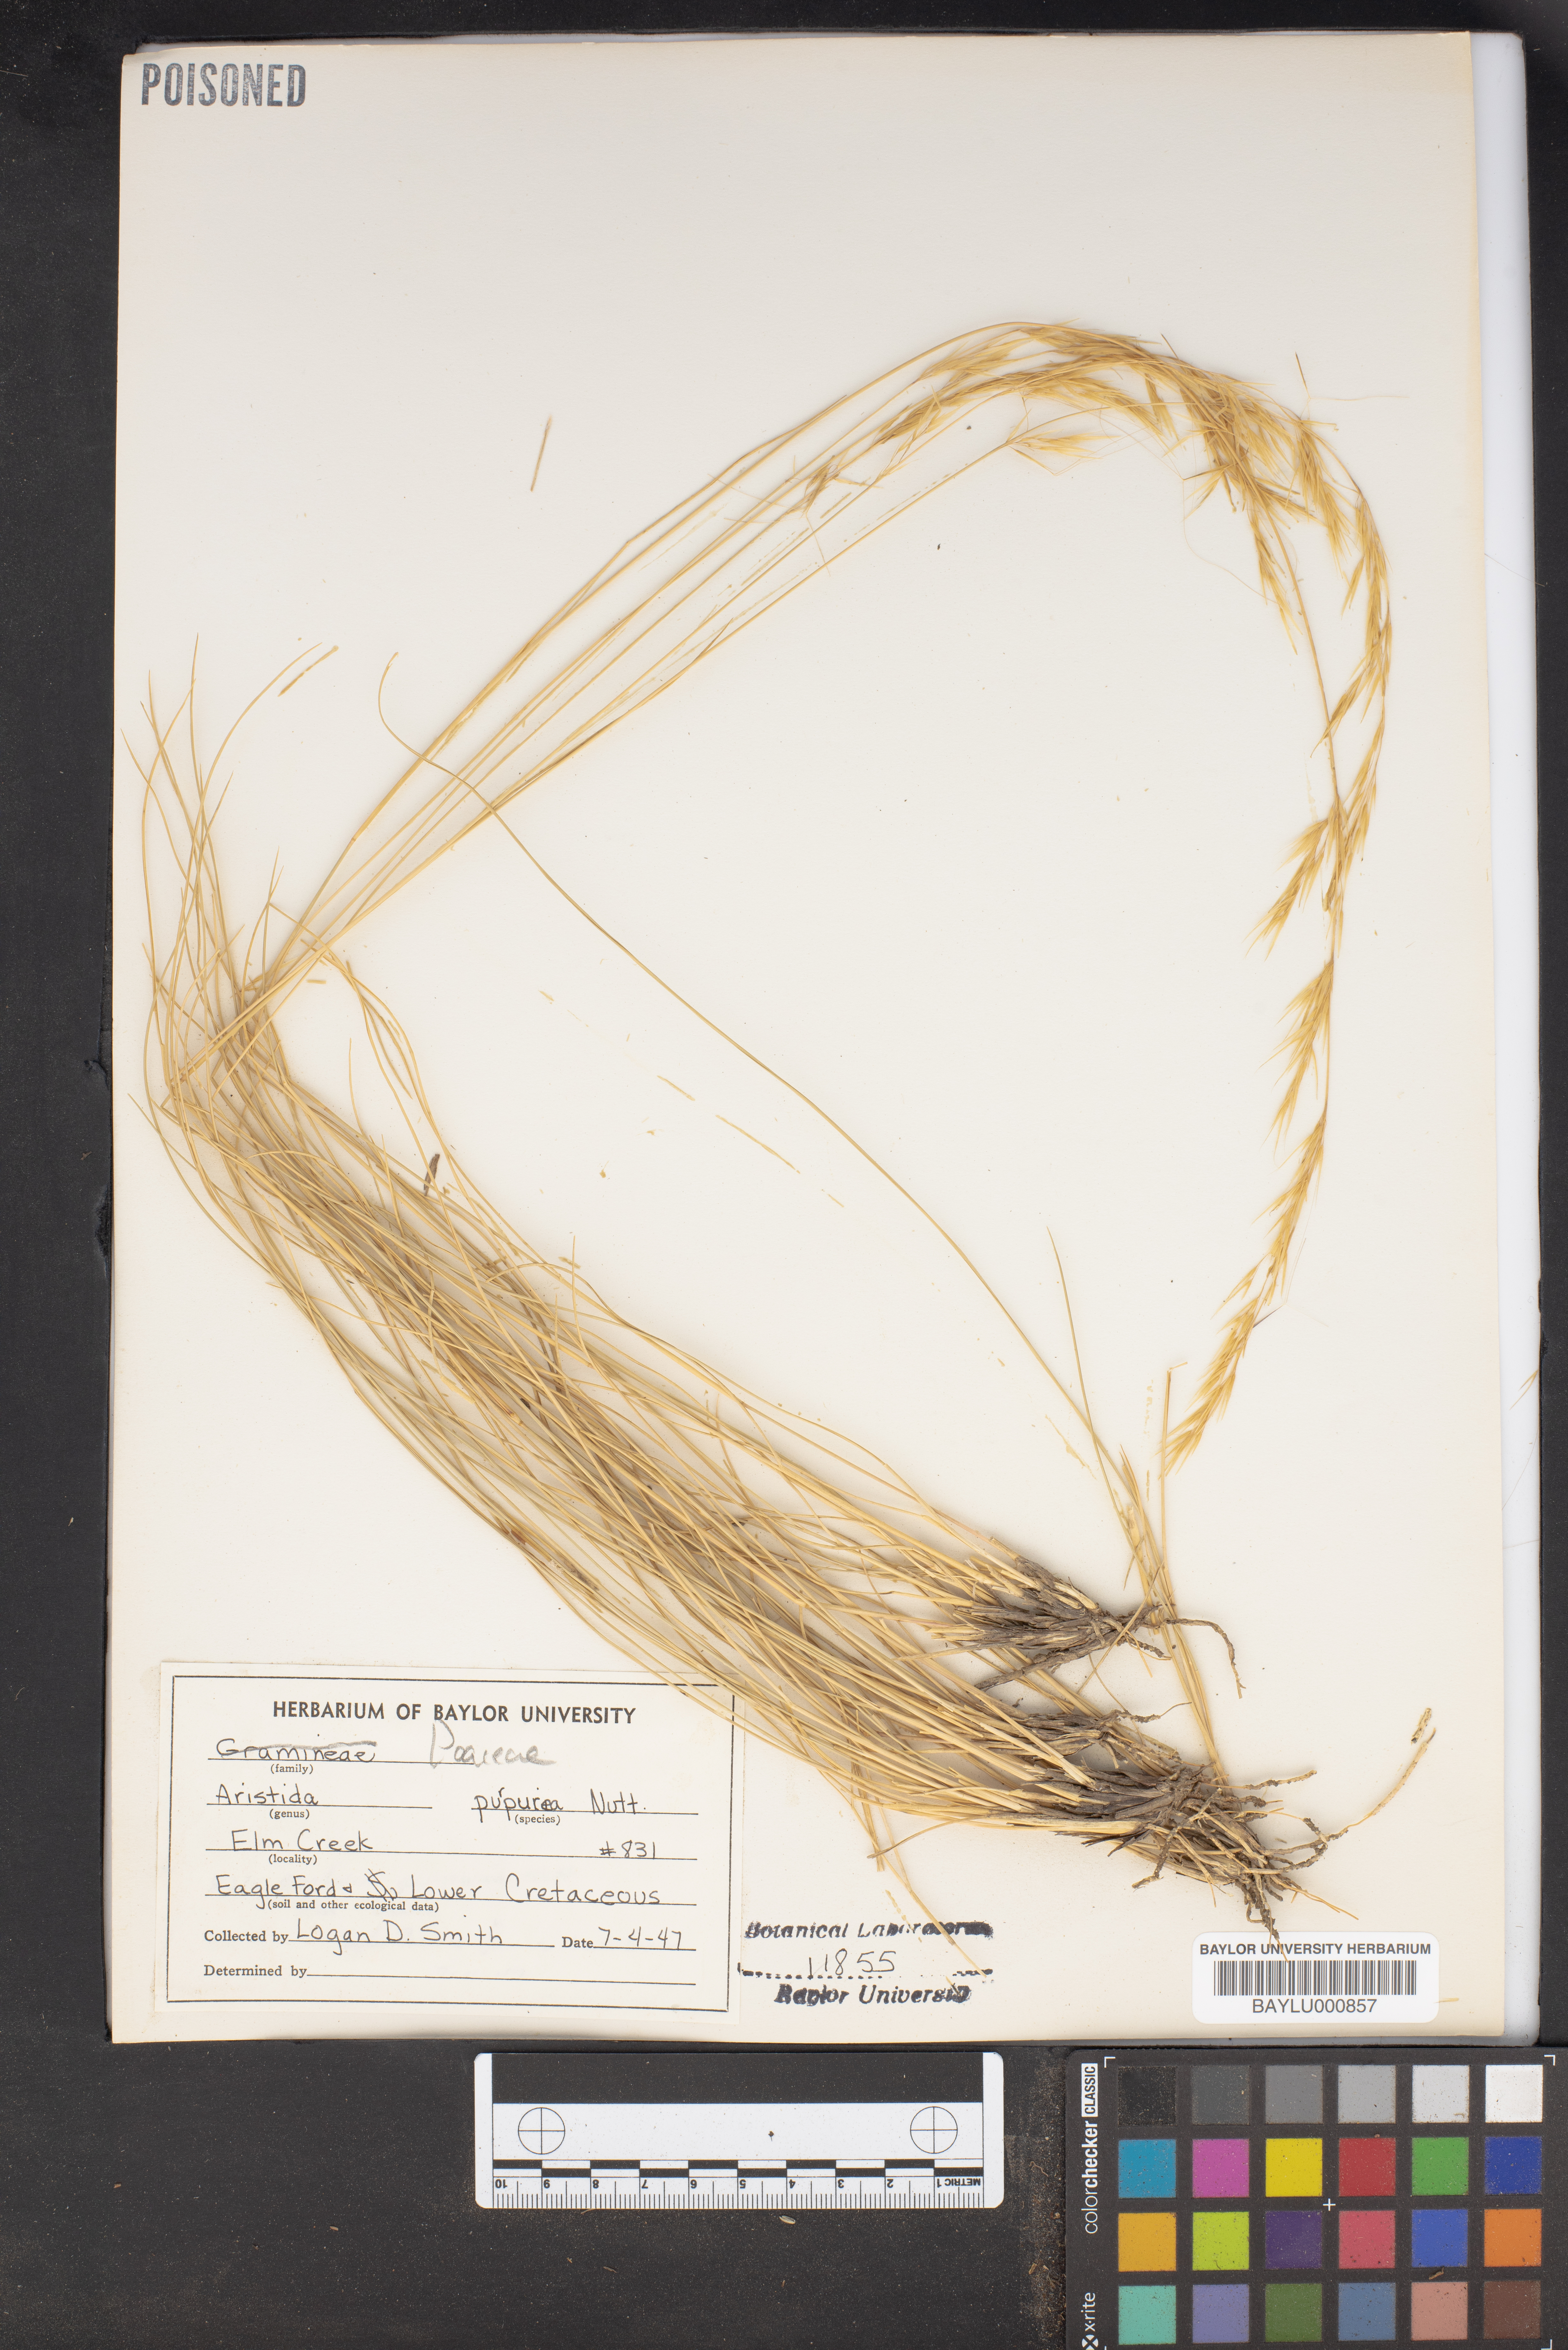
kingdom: Plantae
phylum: Tracheophyta
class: Liliopsida
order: Poales
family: Poaceae
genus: Aristida
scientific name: Aristida purpurea
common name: Purple threeawn
